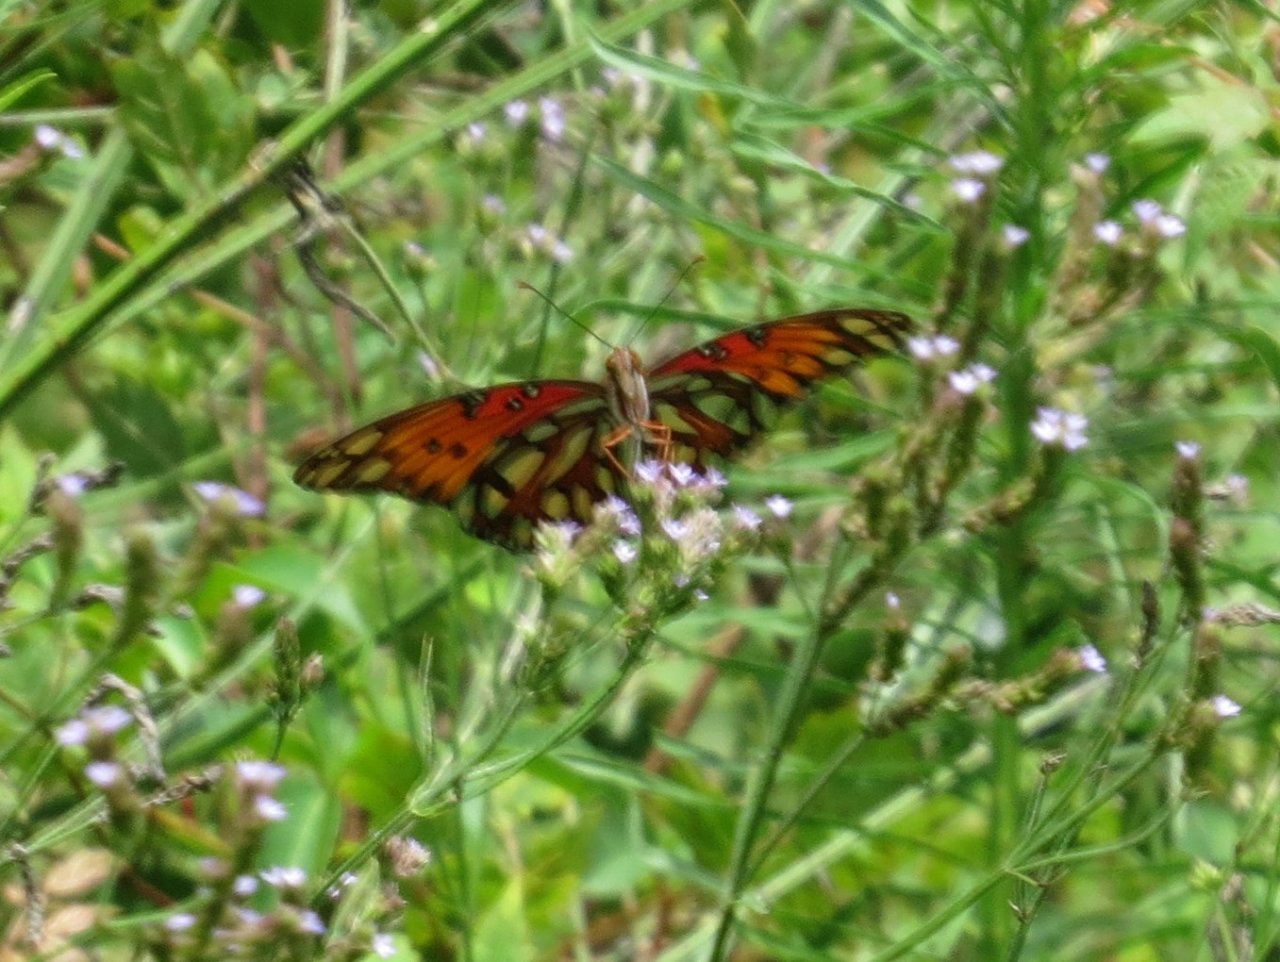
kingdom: Animalia
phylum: Arthropoda
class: Insecta
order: Lepidoptera
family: Nymphalidae
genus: Dione
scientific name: Dione vanillae
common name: Gulf Fritillary
